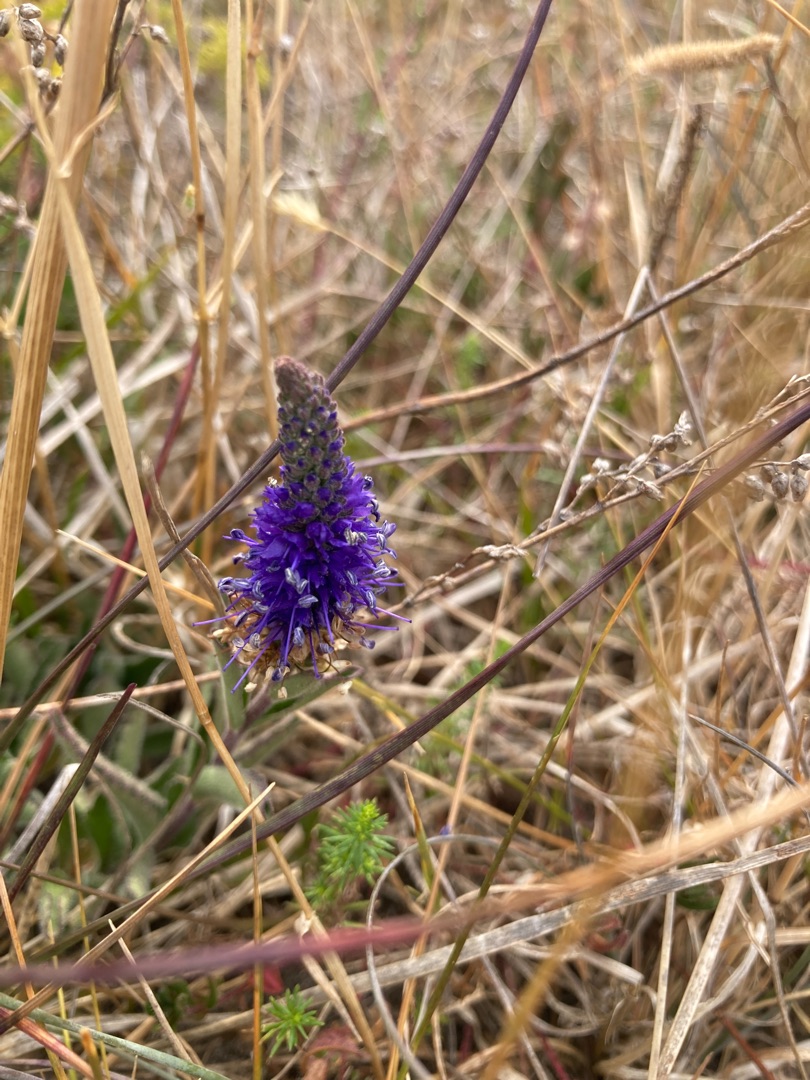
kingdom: Plantae
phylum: Tracheophyta
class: Magnoliopsida
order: Lamiales
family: Plantaginaceae
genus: Veronica
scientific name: Veronica spicata
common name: Aks-ærenpris
